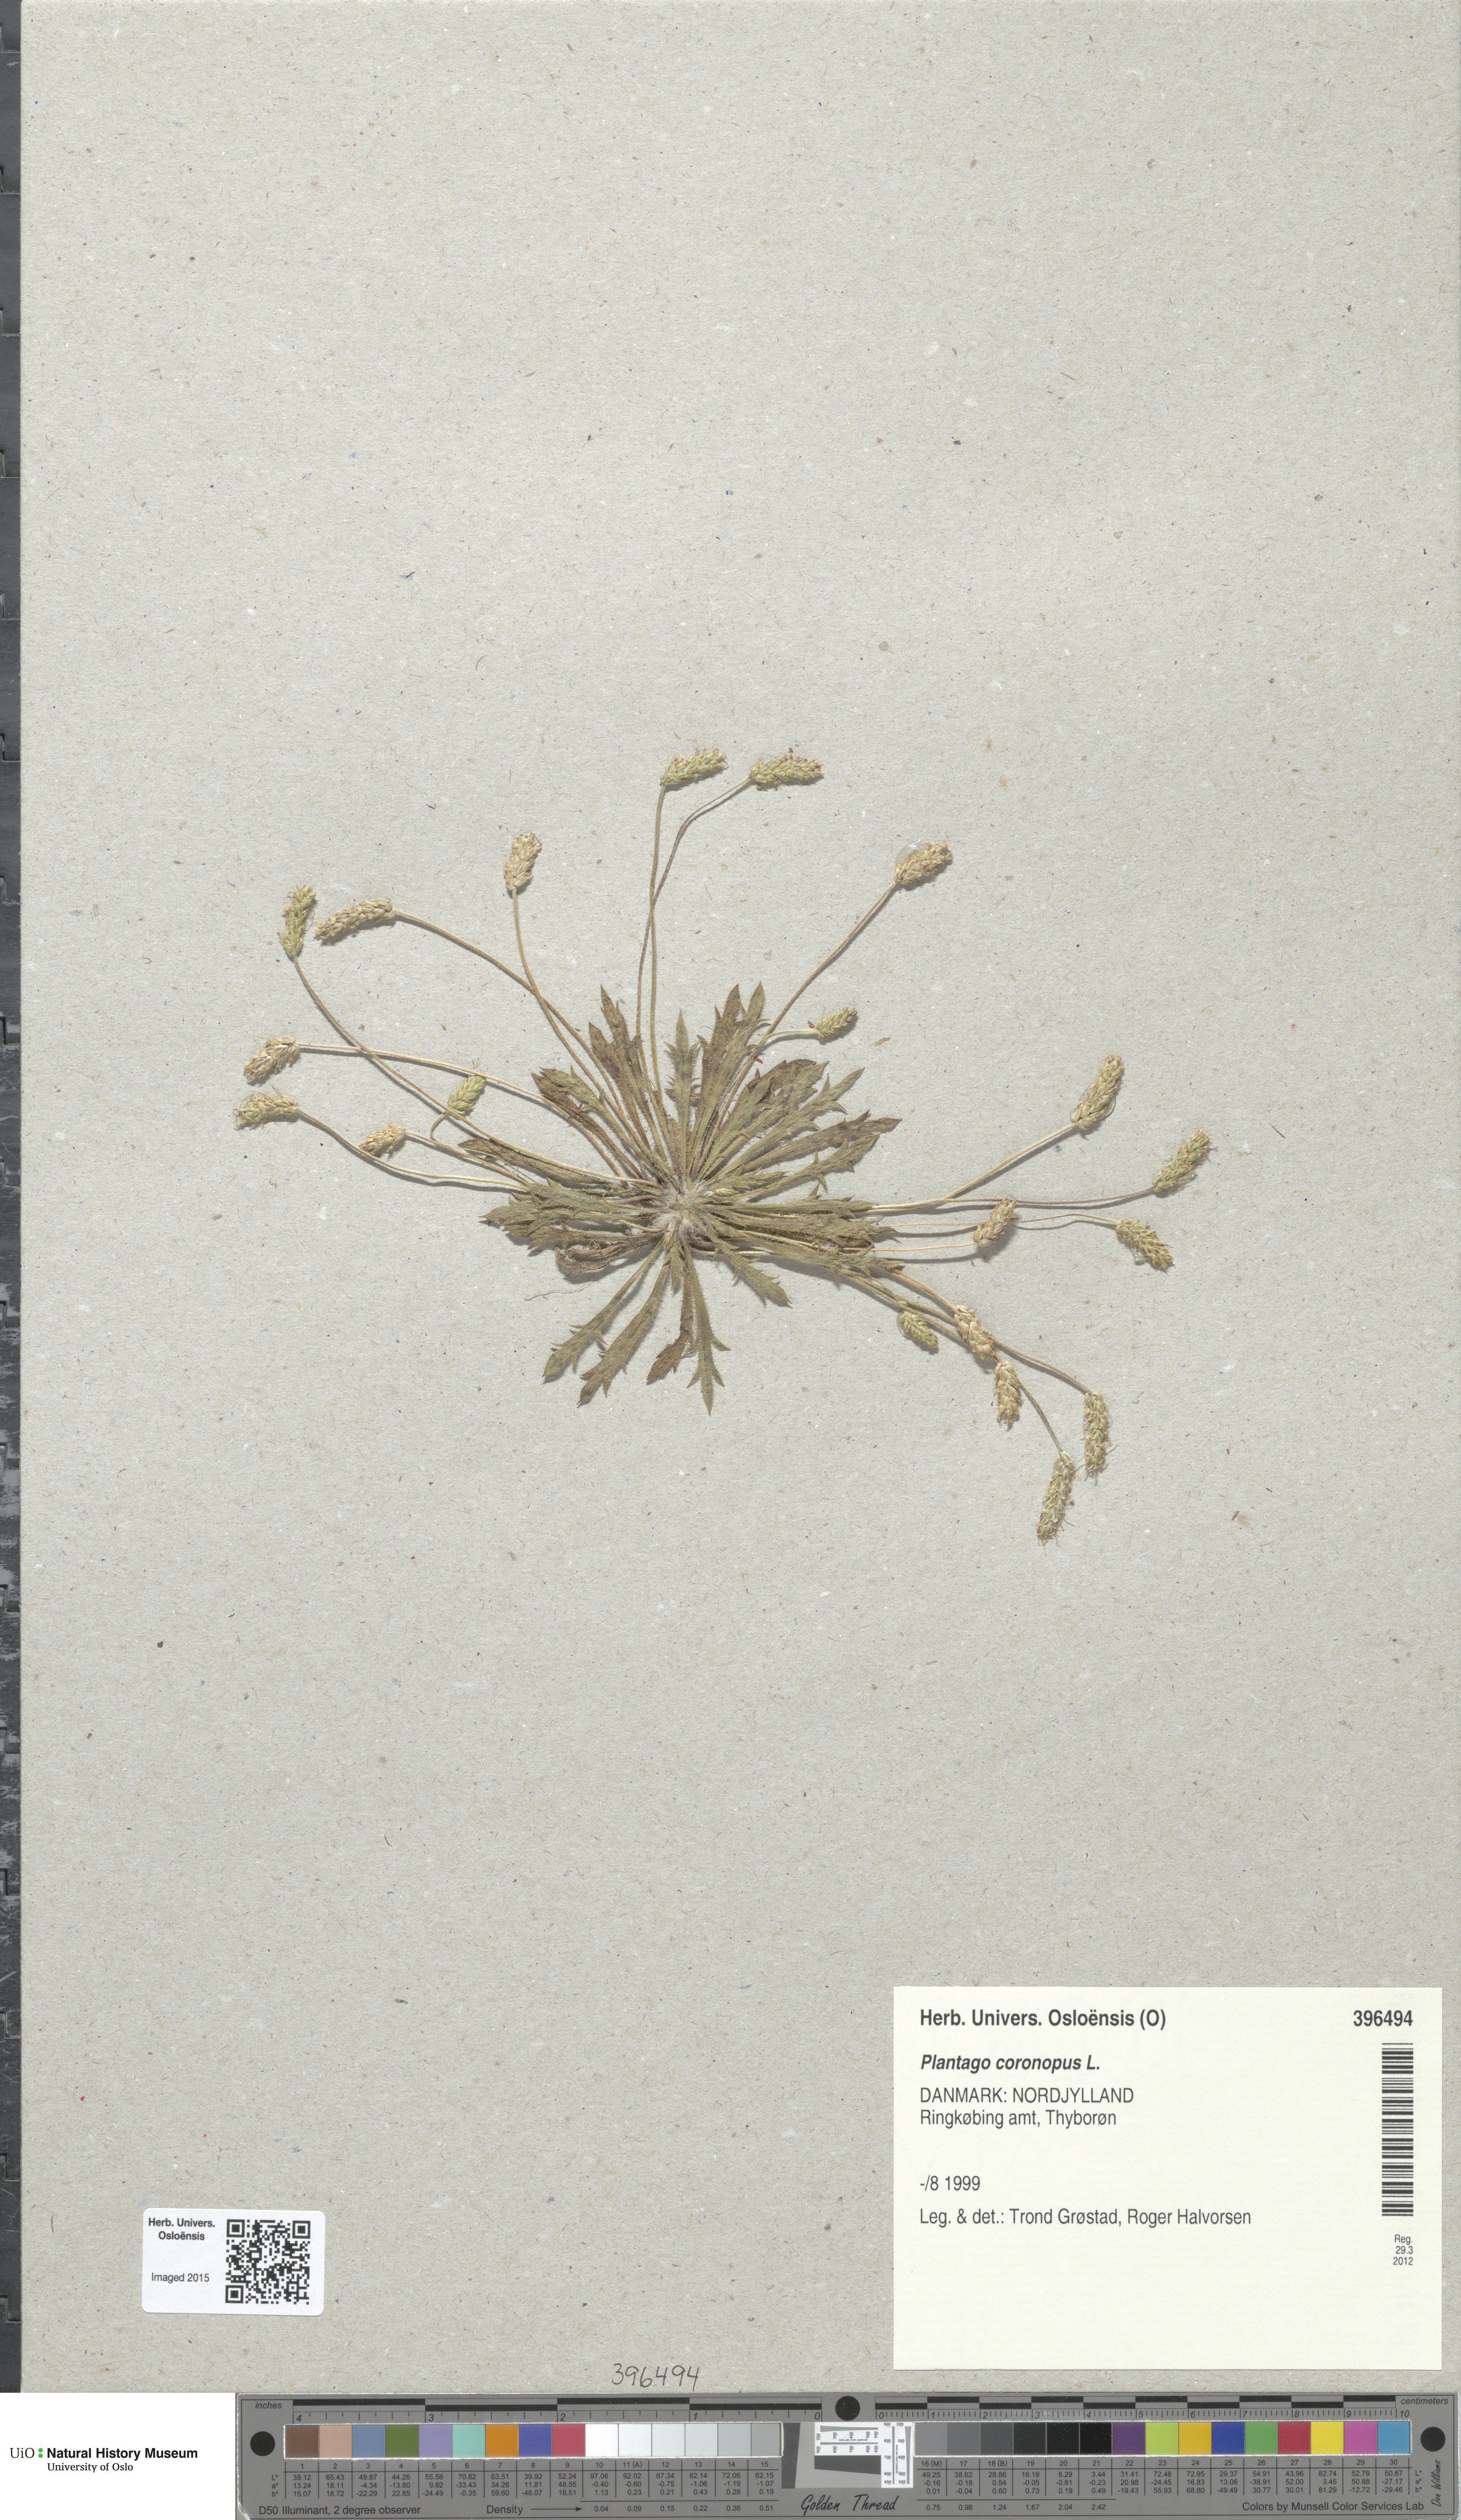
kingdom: Plantae
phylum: Tracheophyta
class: Magnoliopsida
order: Lamiales
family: Plantaginaceae
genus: Plantago
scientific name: Plantago coronopus
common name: Buck's-horn plantain
